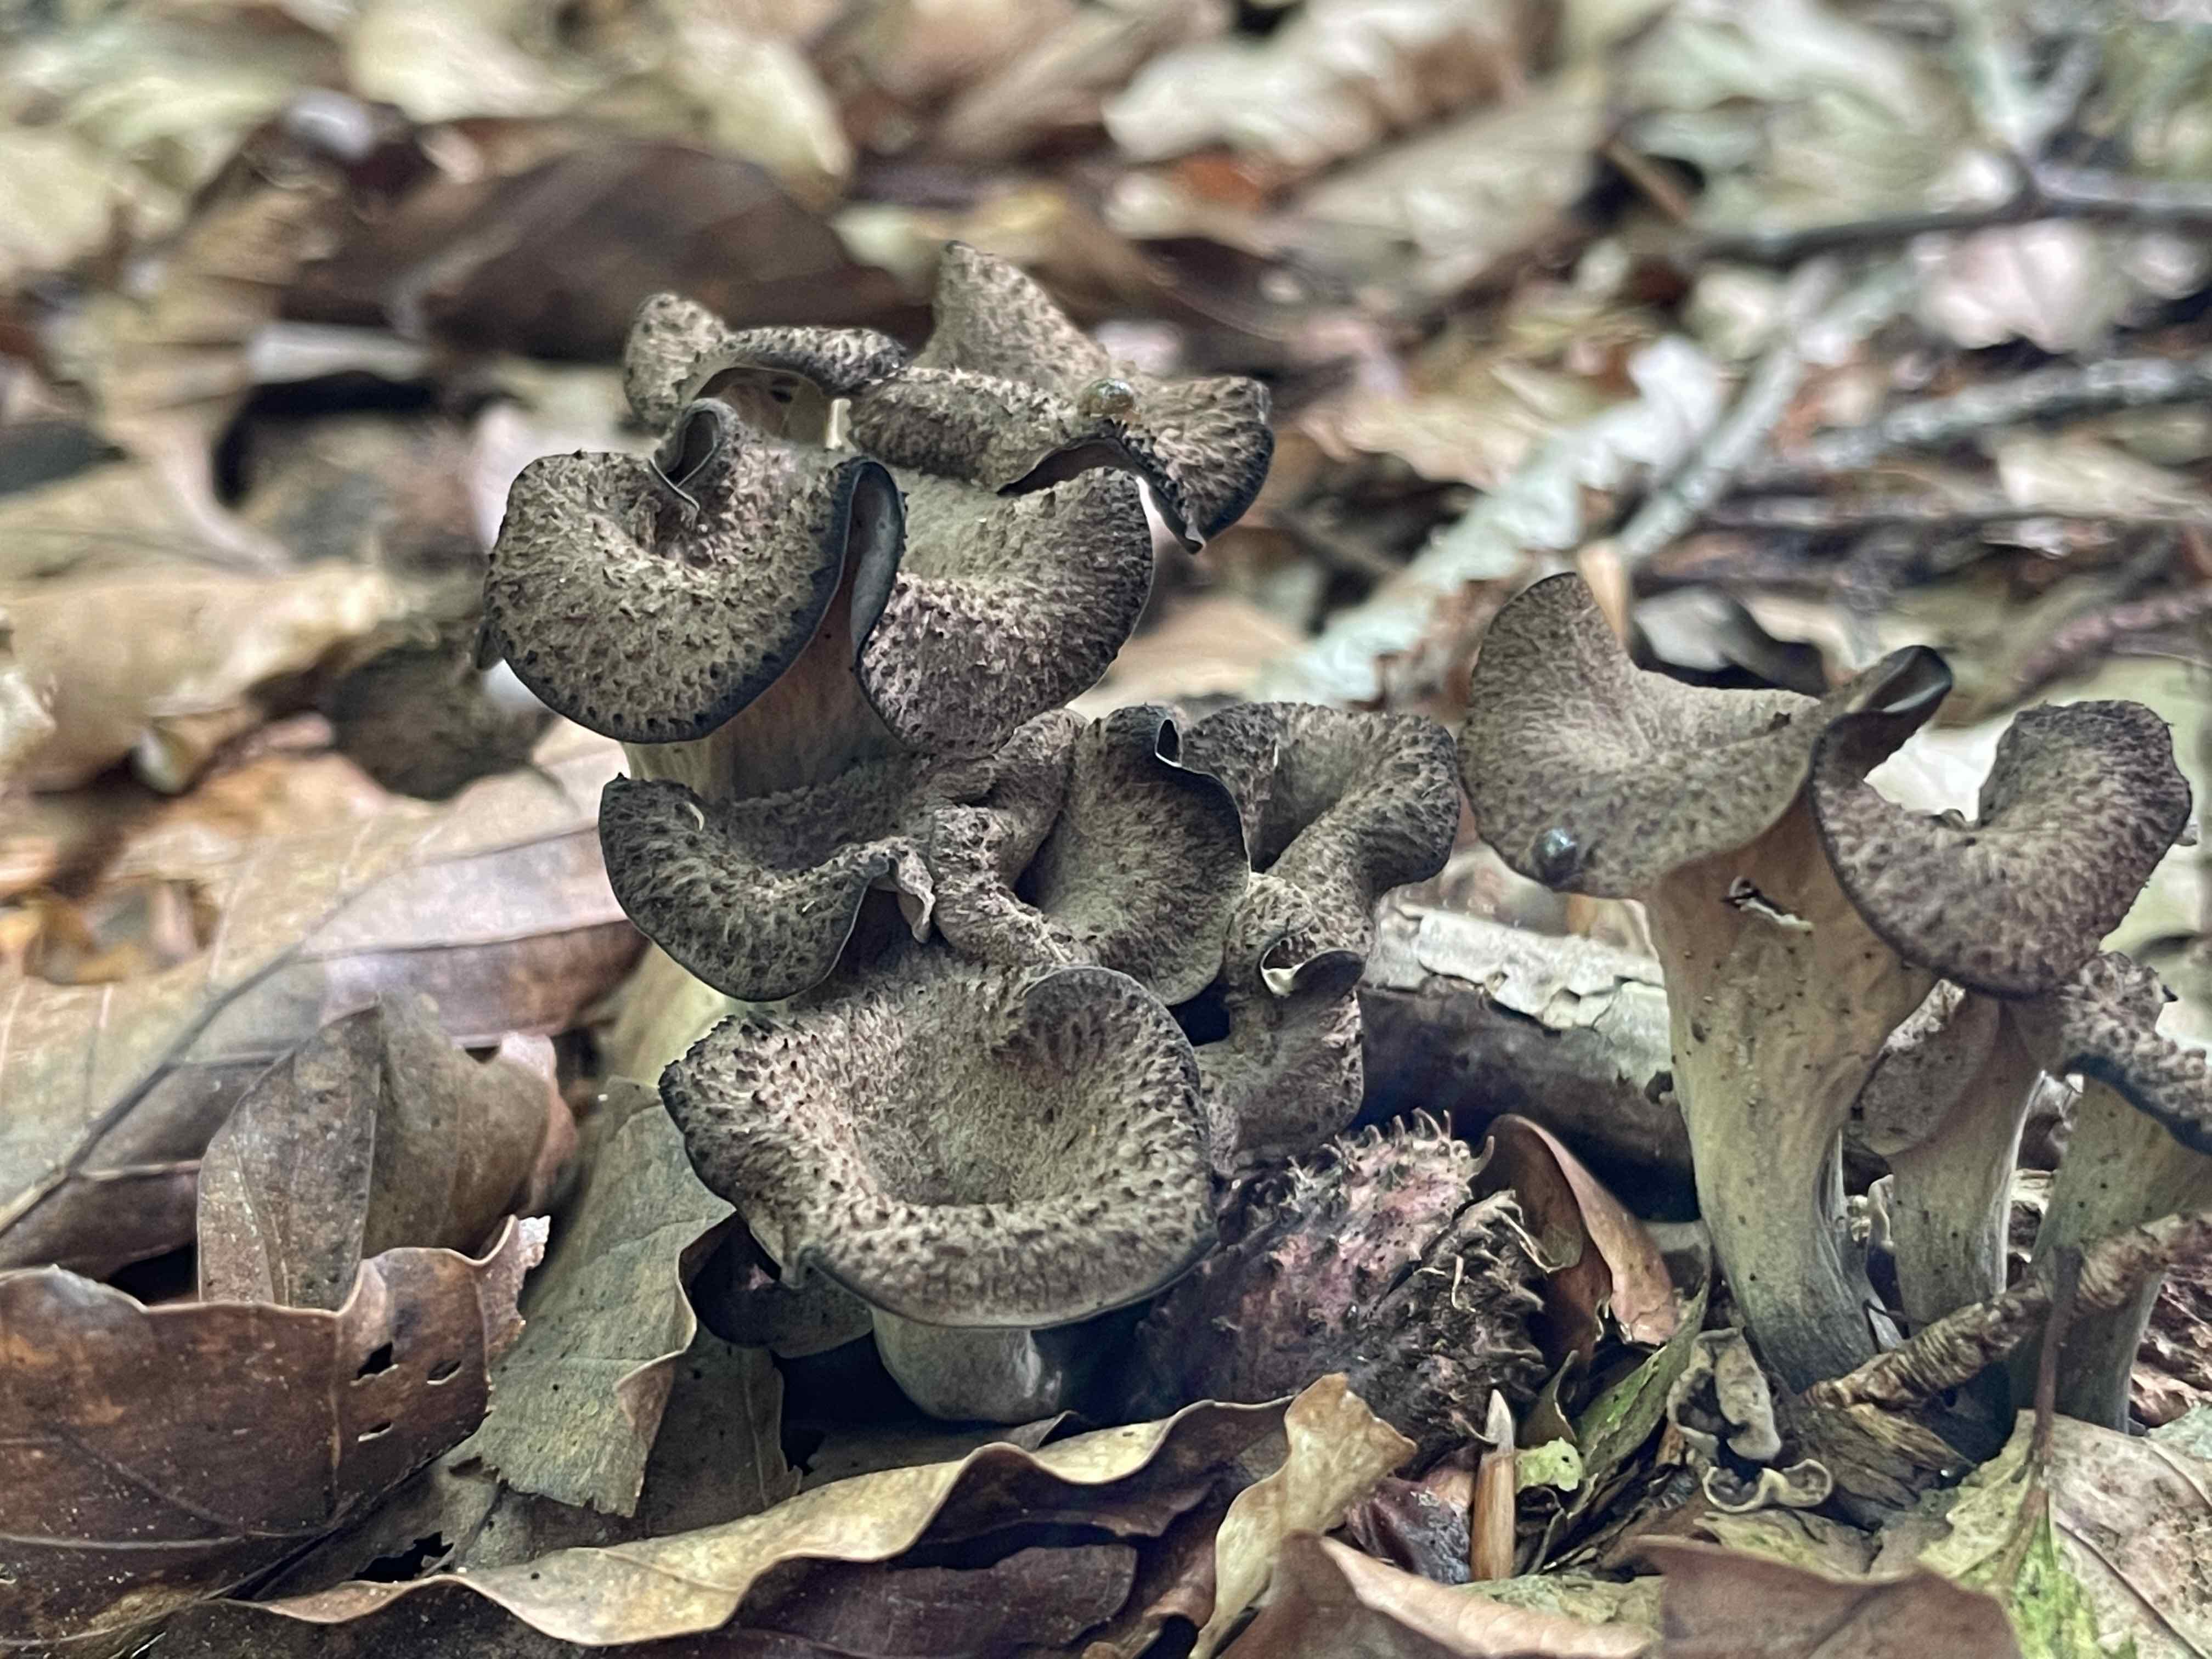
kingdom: Fungi
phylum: Basidiomycota
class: Agaricomycetes
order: Cantharellales
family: Hydnaceae
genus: Craterellus
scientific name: Craterellus cornucopioides
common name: trompetsvamp
